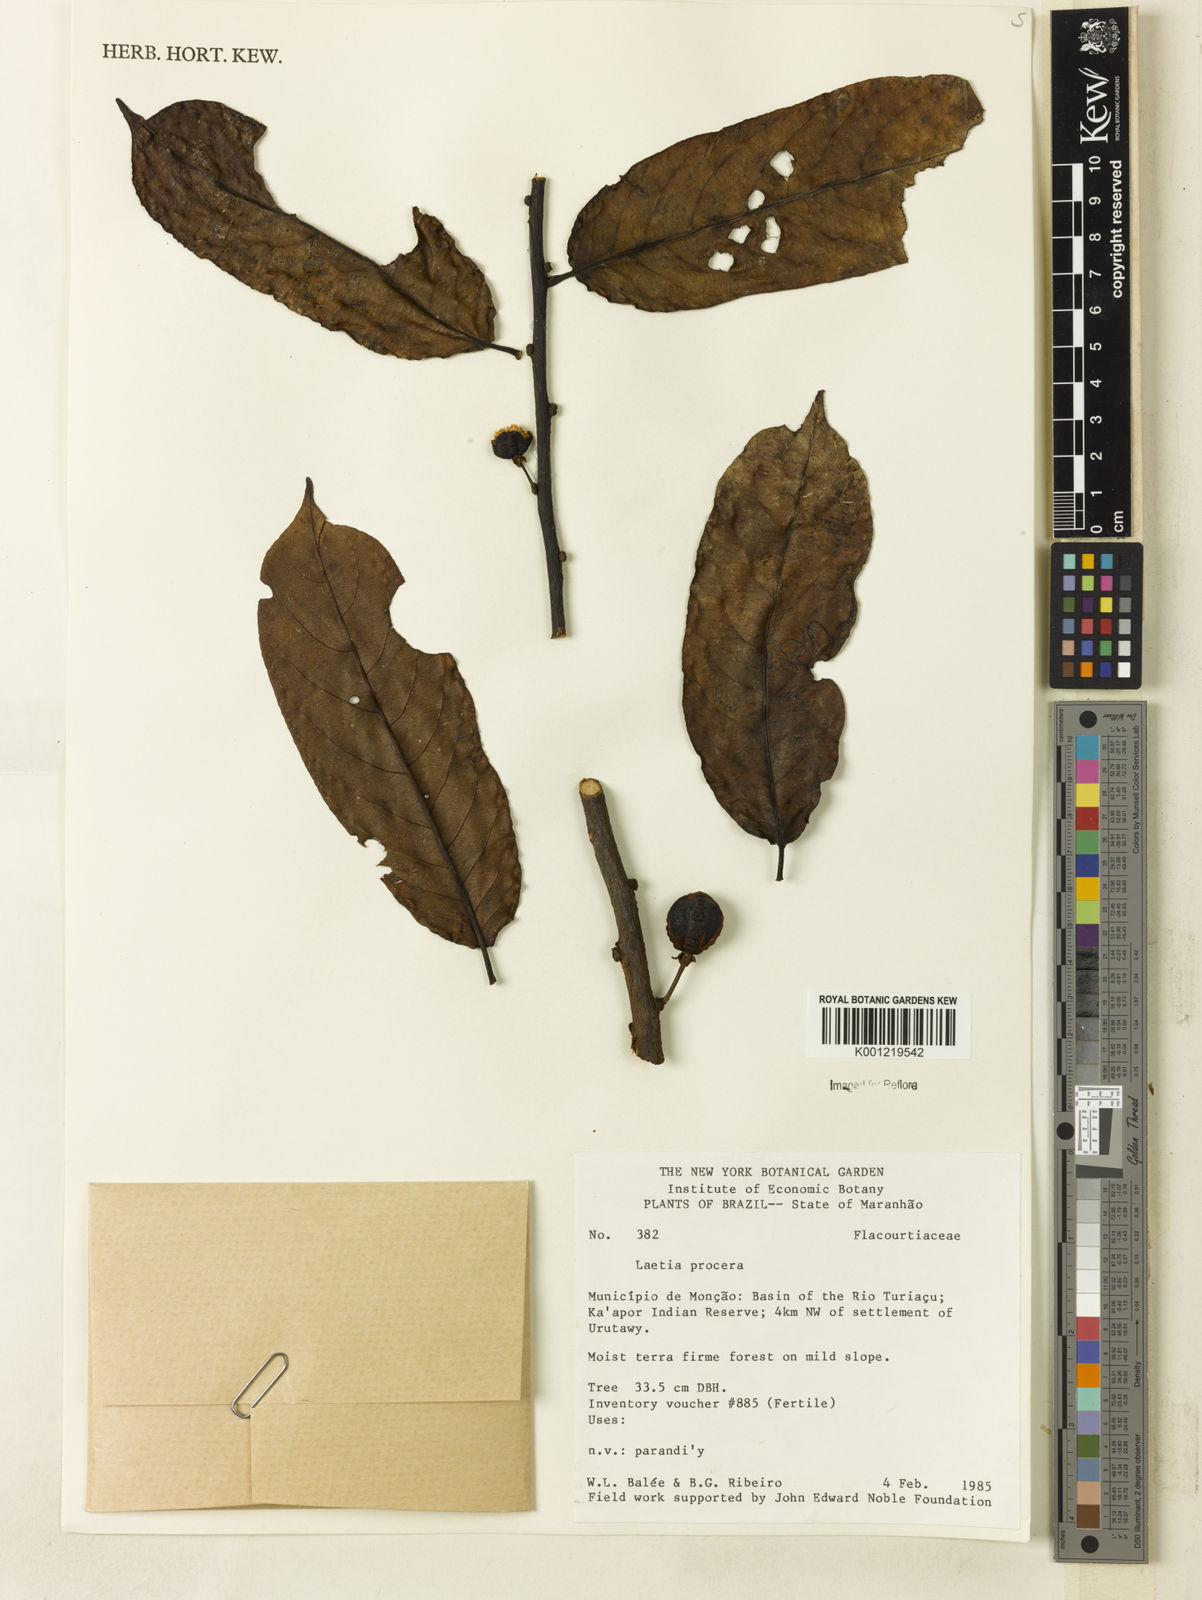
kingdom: Plantae
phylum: Tracheophyta
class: Magnoliopsida
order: Malpighiales
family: Salicaceae
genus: Casearia
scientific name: Casearia bicolor
